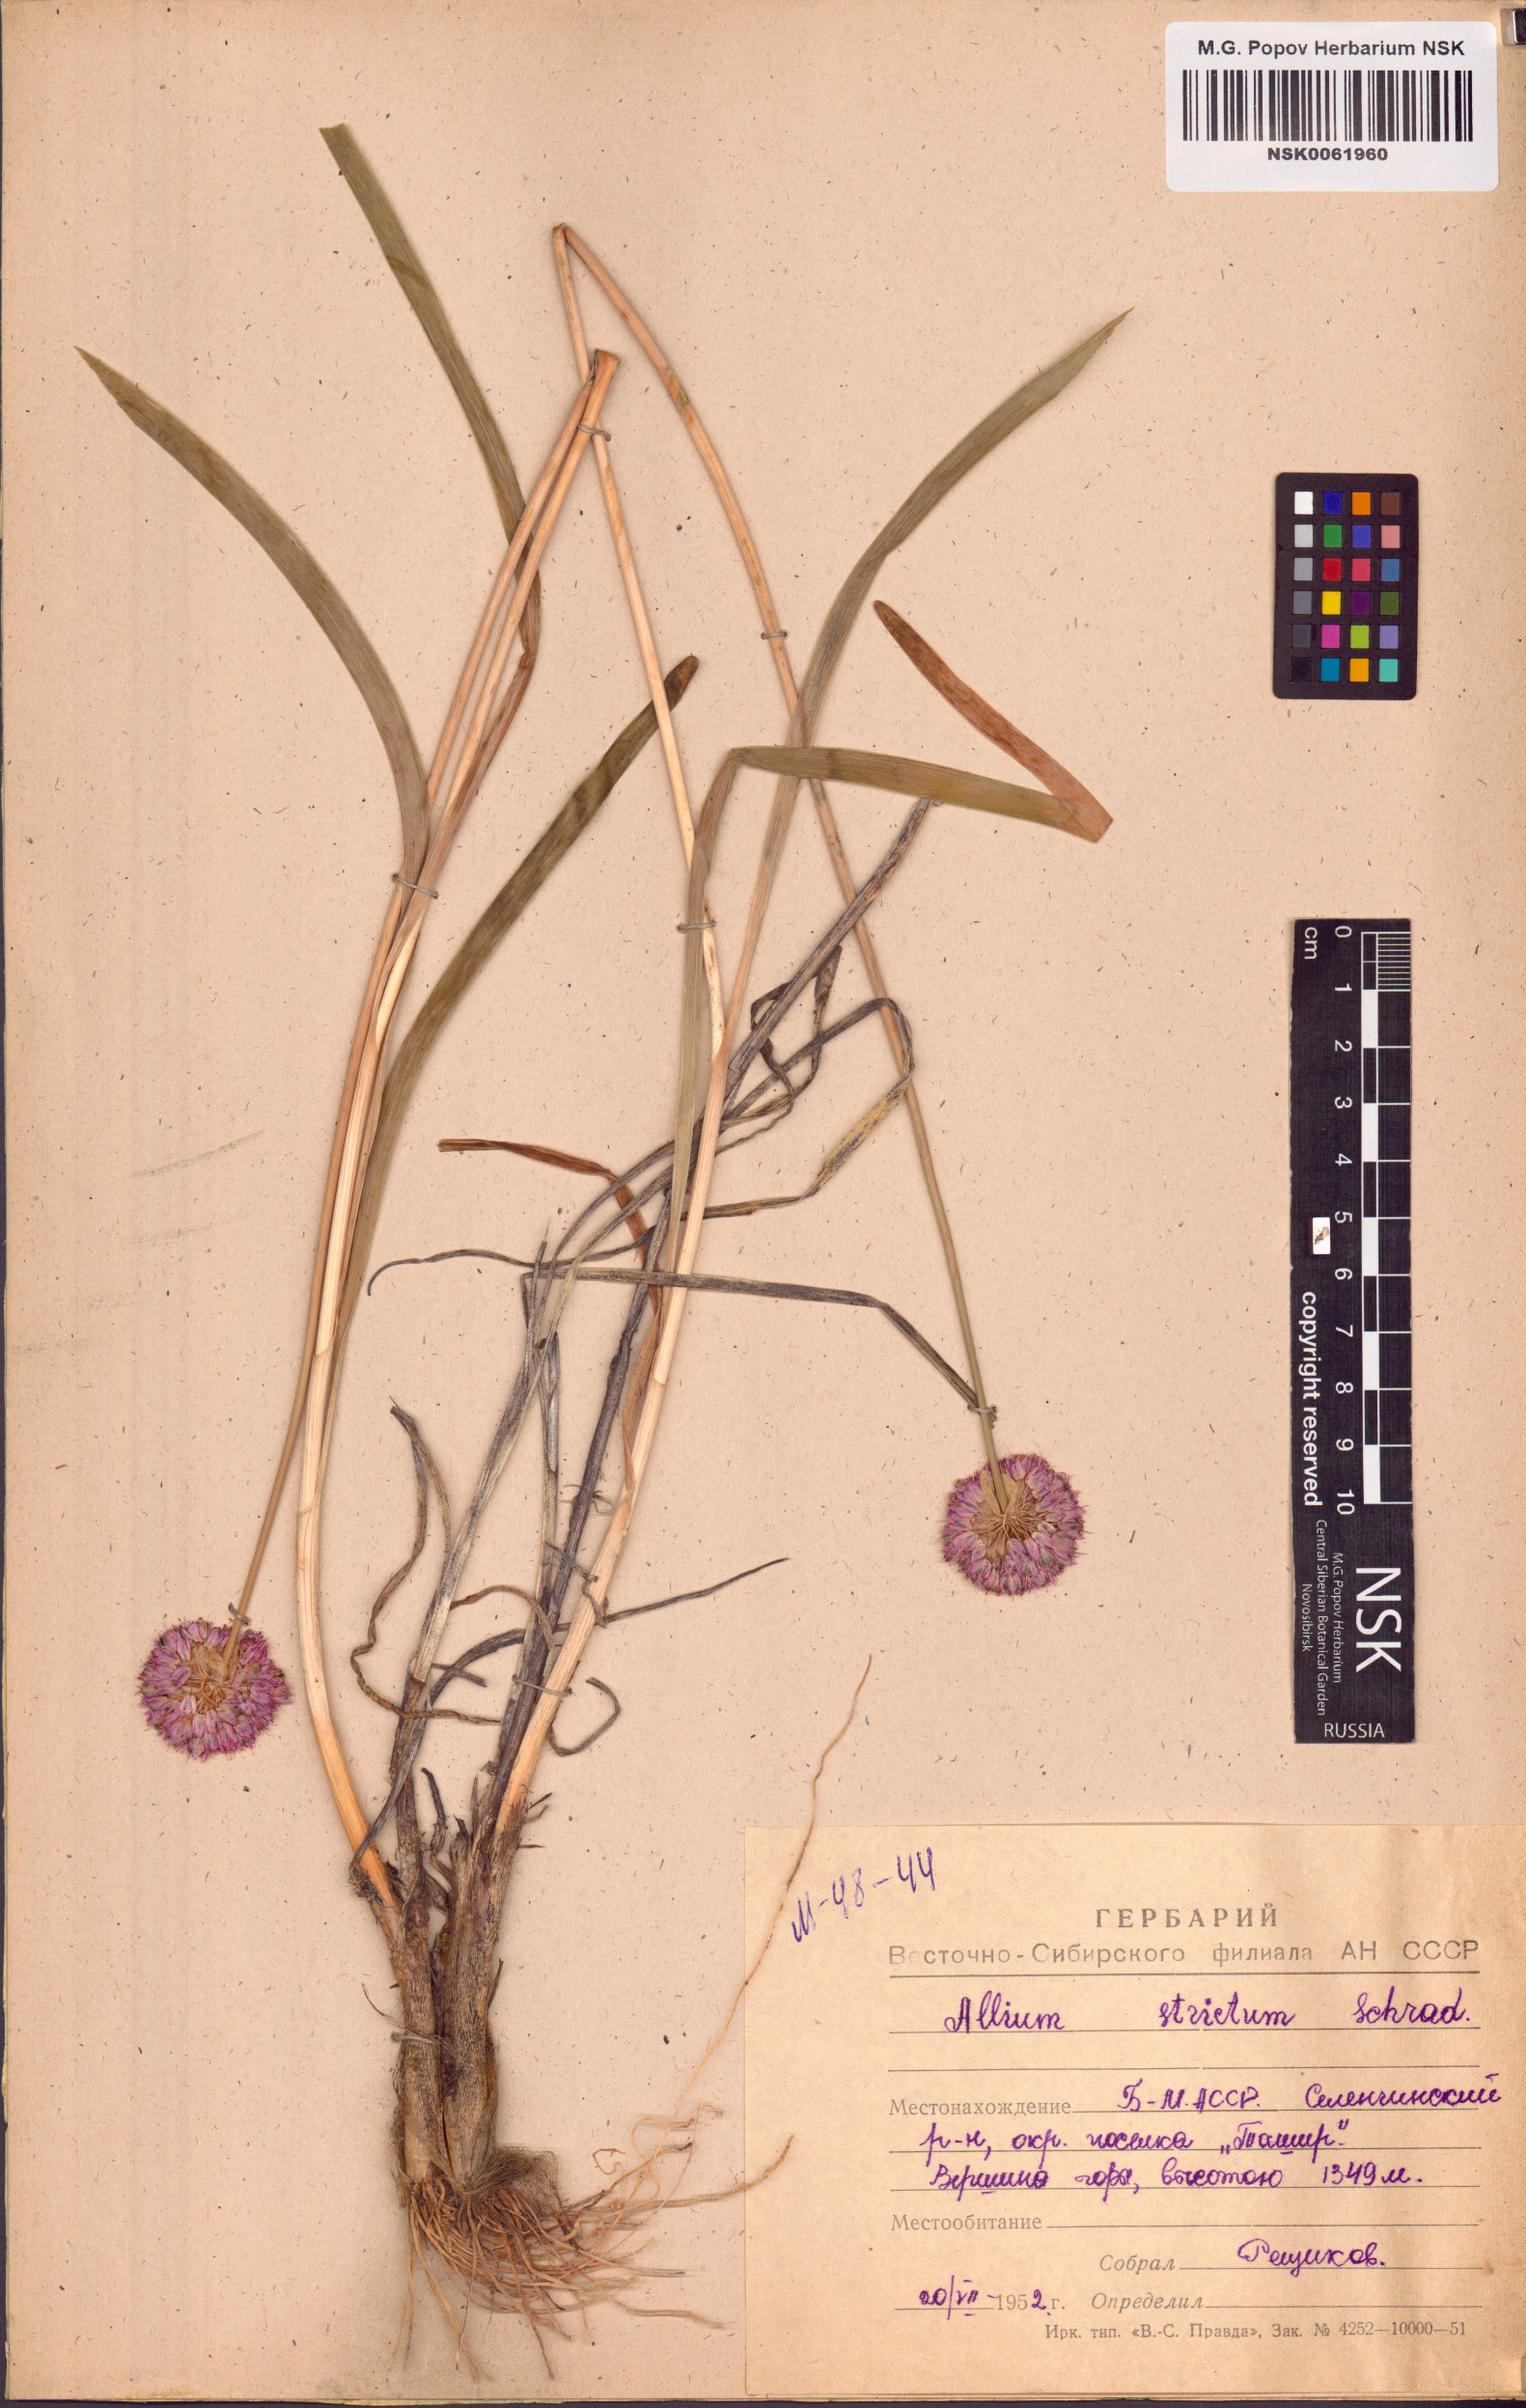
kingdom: Plantae
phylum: Tracheophyta
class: Liliopsida
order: Asparagales
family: Amaryllidaceae
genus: Allium
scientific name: Allium strictum
